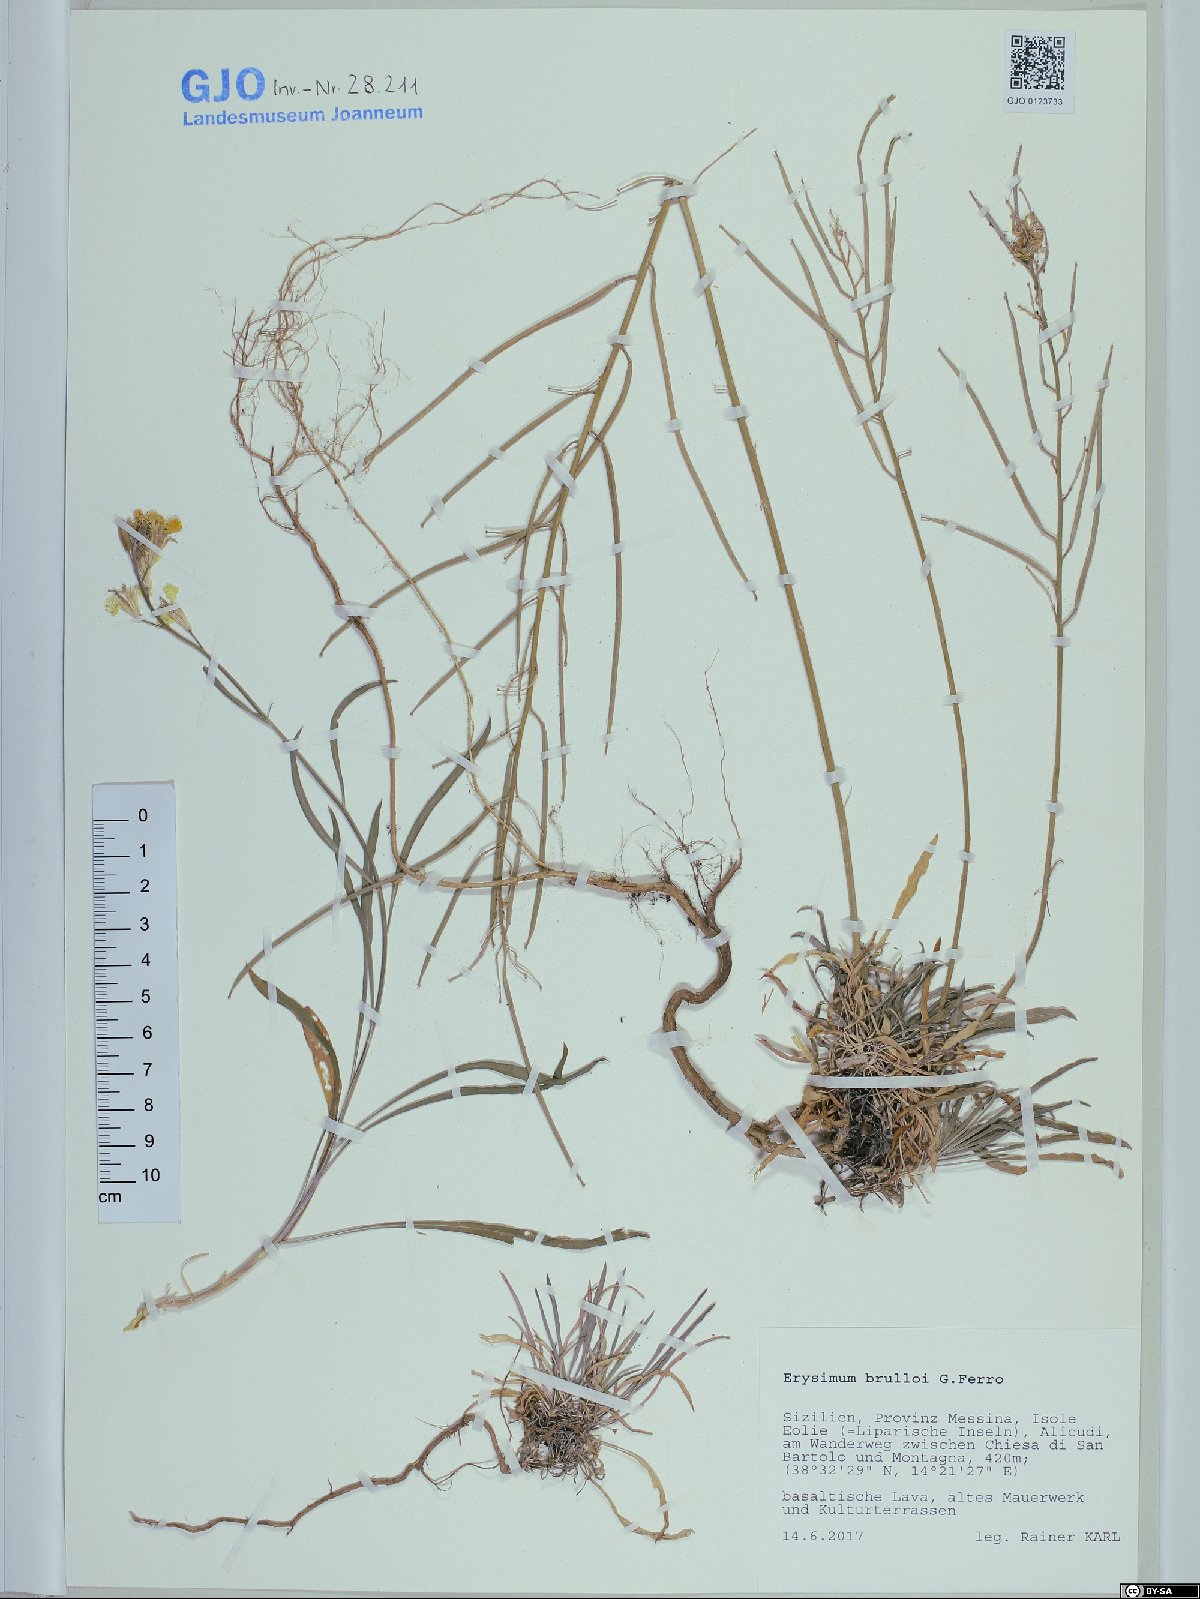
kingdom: Plantae
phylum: Tracheophyta
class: Magnoliopsida
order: Brassicales
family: Brassicaceae
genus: Erysimum
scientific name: Erysimum brulloi
